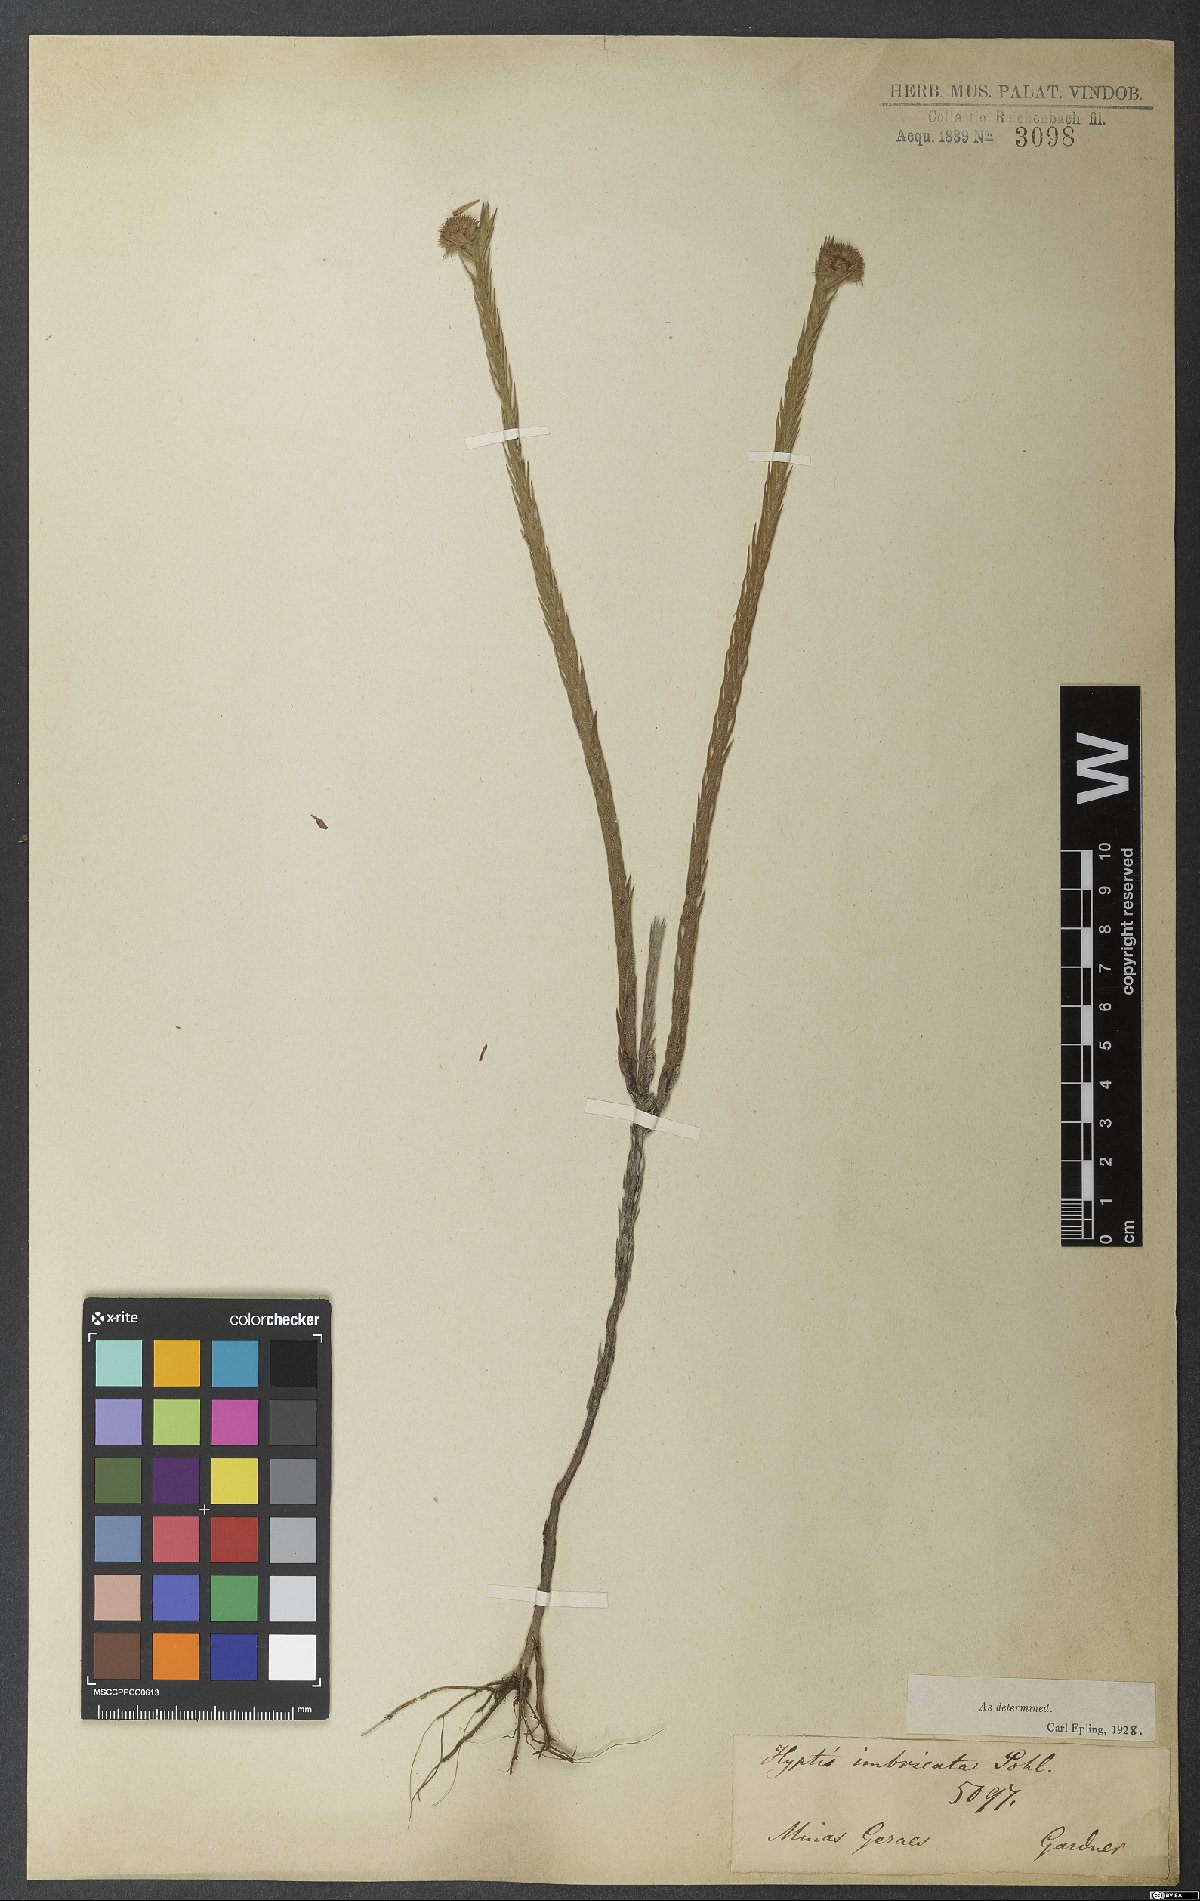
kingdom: Plantae
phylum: Tracheophyta
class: Magnoliopsida
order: Lamiales
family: Lamiaceae
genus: Hyptis
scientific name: Hyptis imbricata
